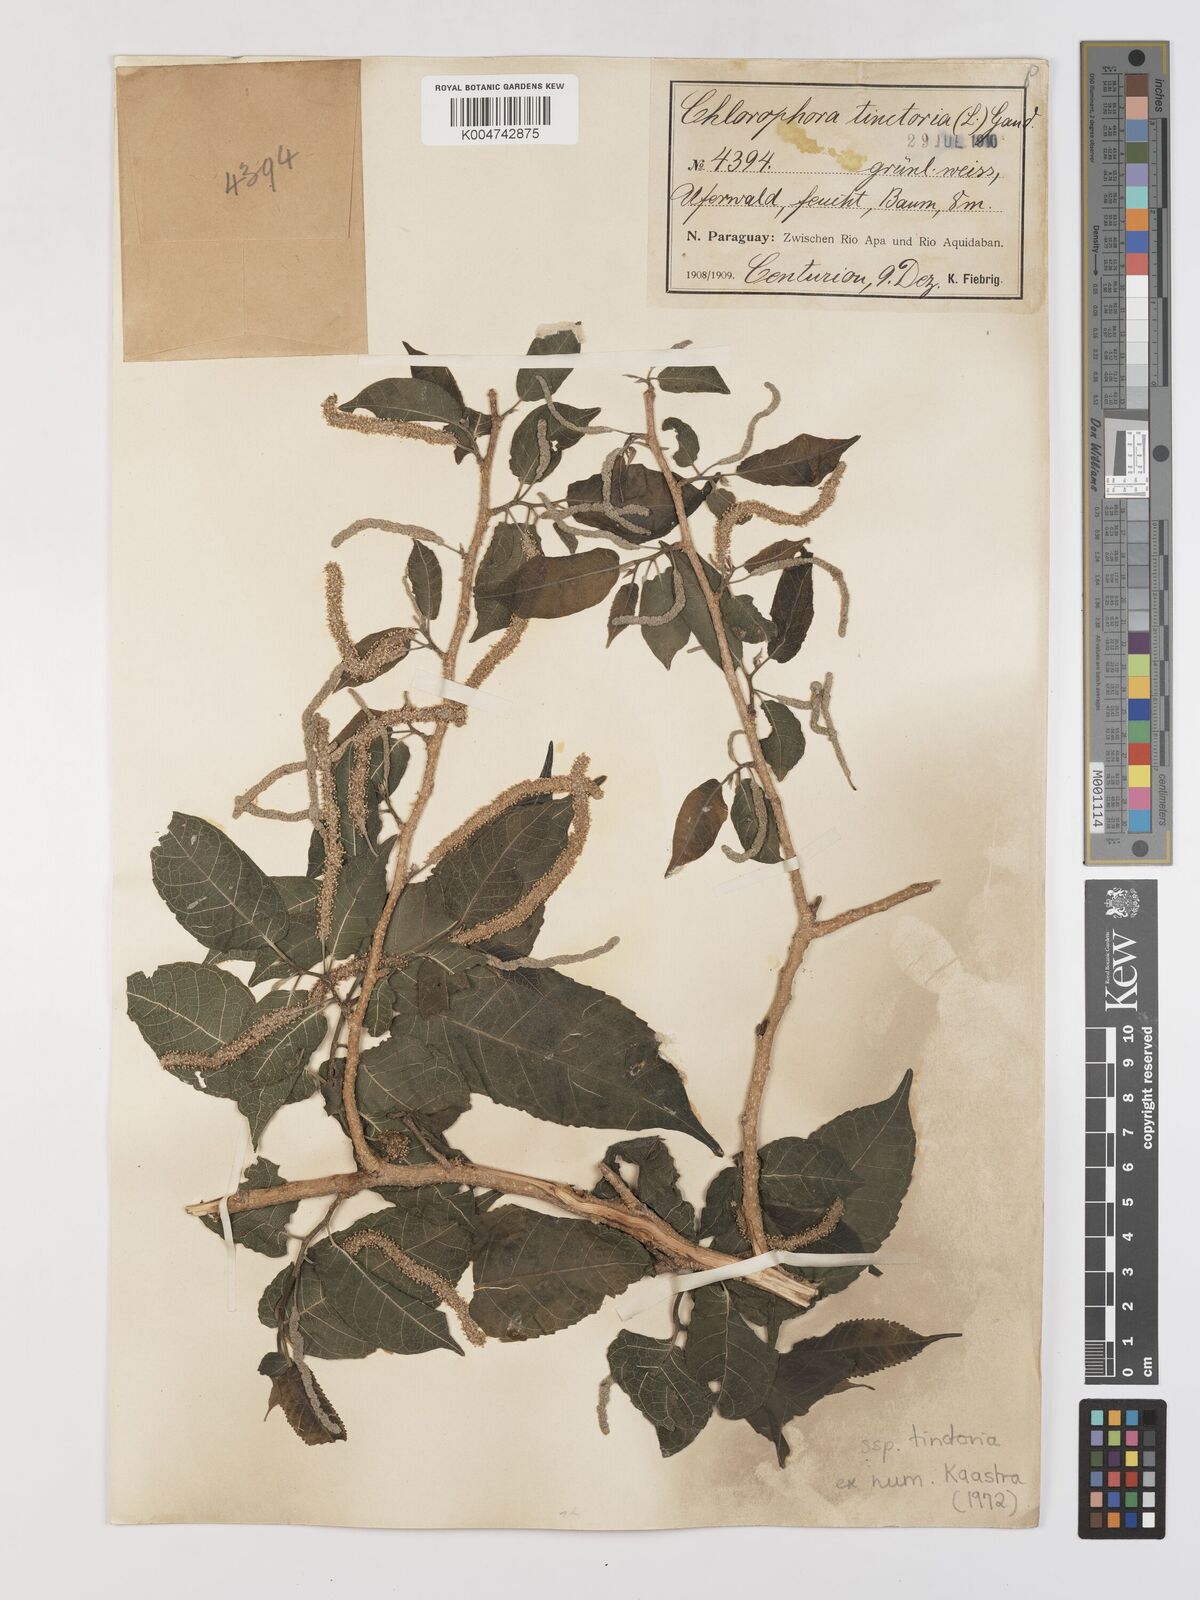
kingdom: Plantae
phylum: Tracheophyta
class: Magnoliopsida
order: Rosales
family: Moraceae
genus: Maclura
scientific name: Maclura tinctoria
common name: Old fustic
